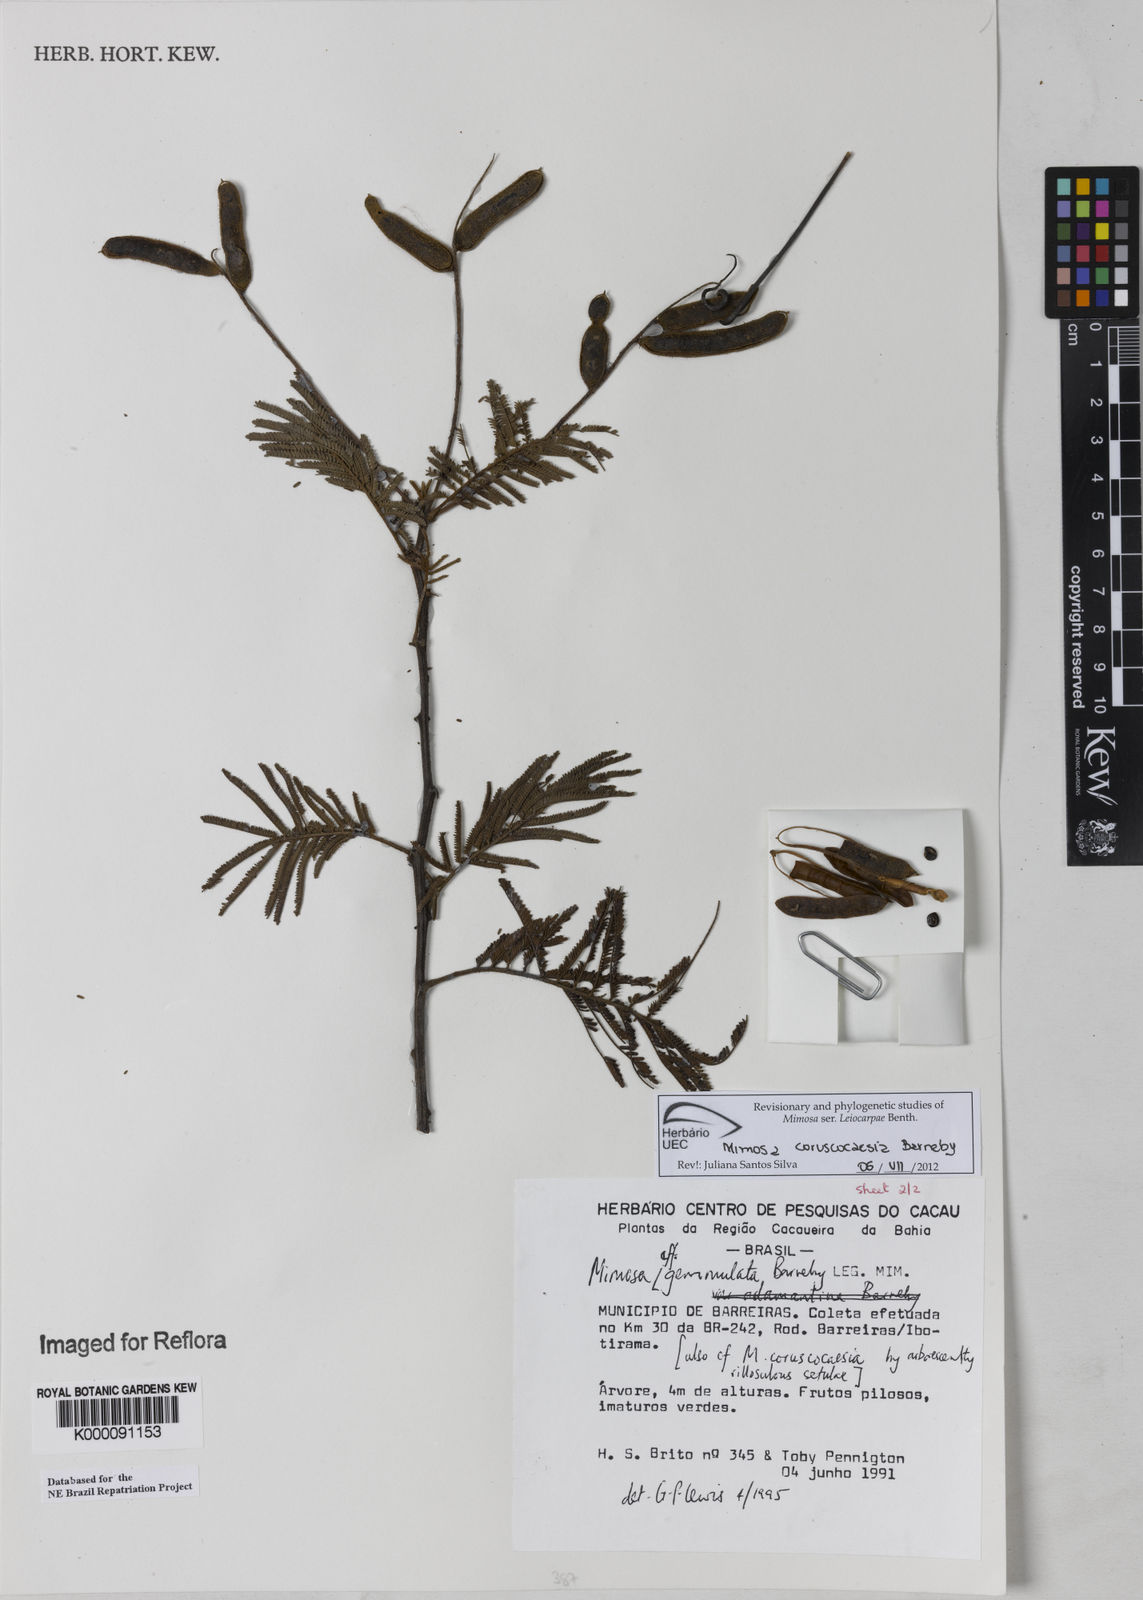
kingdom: Plantae
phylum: Tracheophyta
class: Magnoliopsida
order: Fabales
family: Fabaceae
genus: Mimosa
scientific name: Mimosa gemmulata
